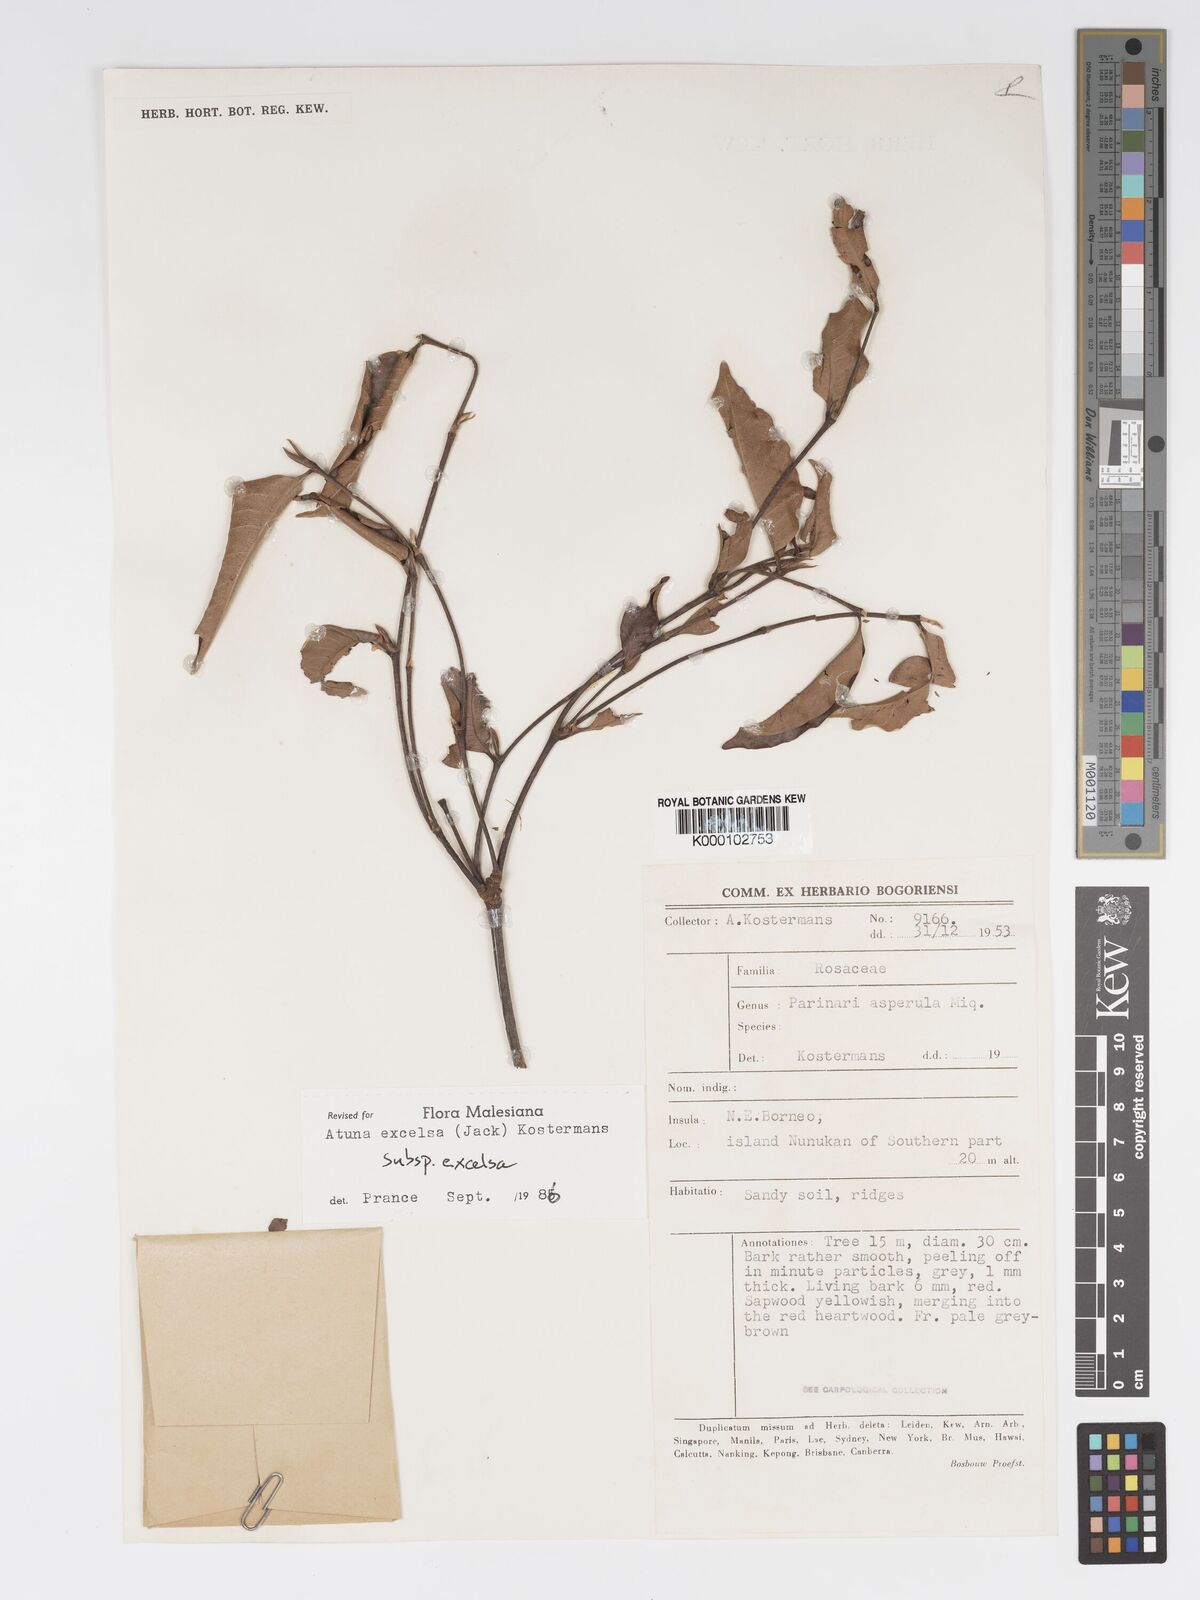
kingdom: Plantae
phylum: Tracheophyta
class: Magnoliopsida
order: Malpighiales
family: Chrysobalanaceae
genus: Atuna
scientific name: Atuna excelsa
